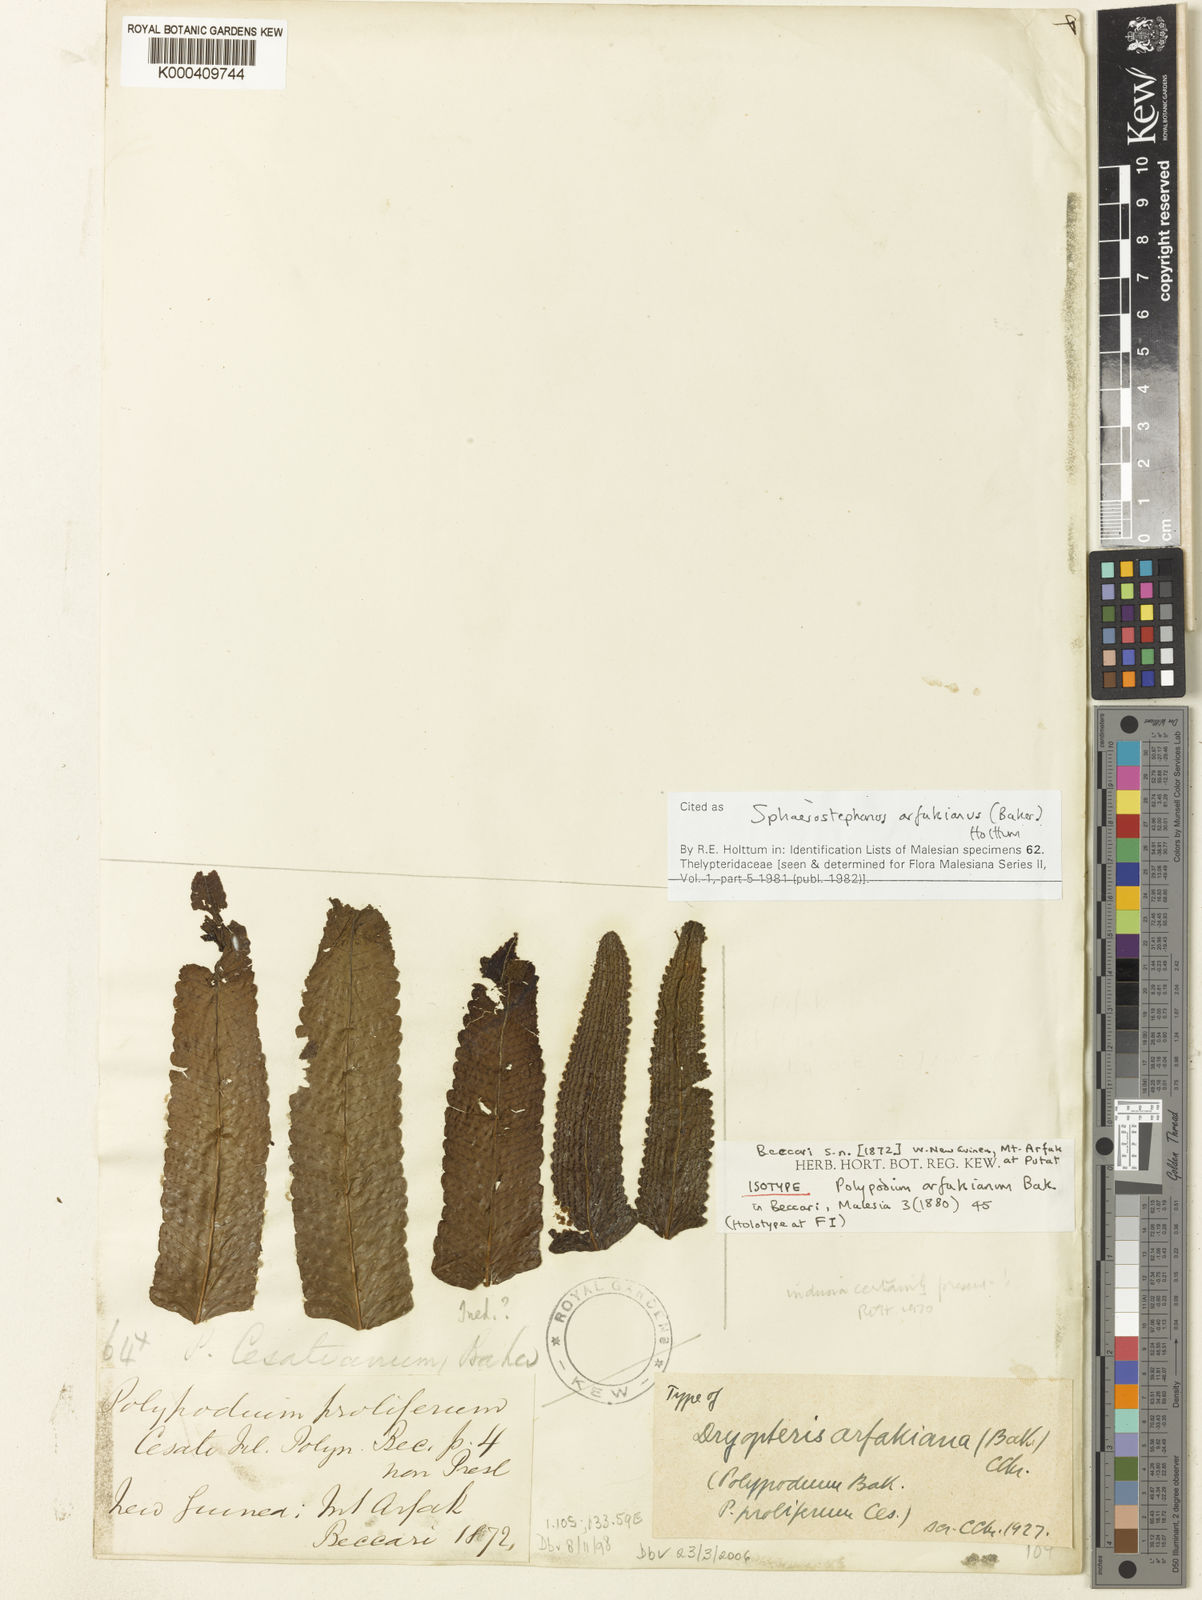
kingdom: Plantae
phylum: Tracheophyta
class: Polypodiopsida
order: Polypodiales
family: Thelypteridaceae
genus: Sphaerostephanos
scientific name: Sphaerostephanos arfakianus
